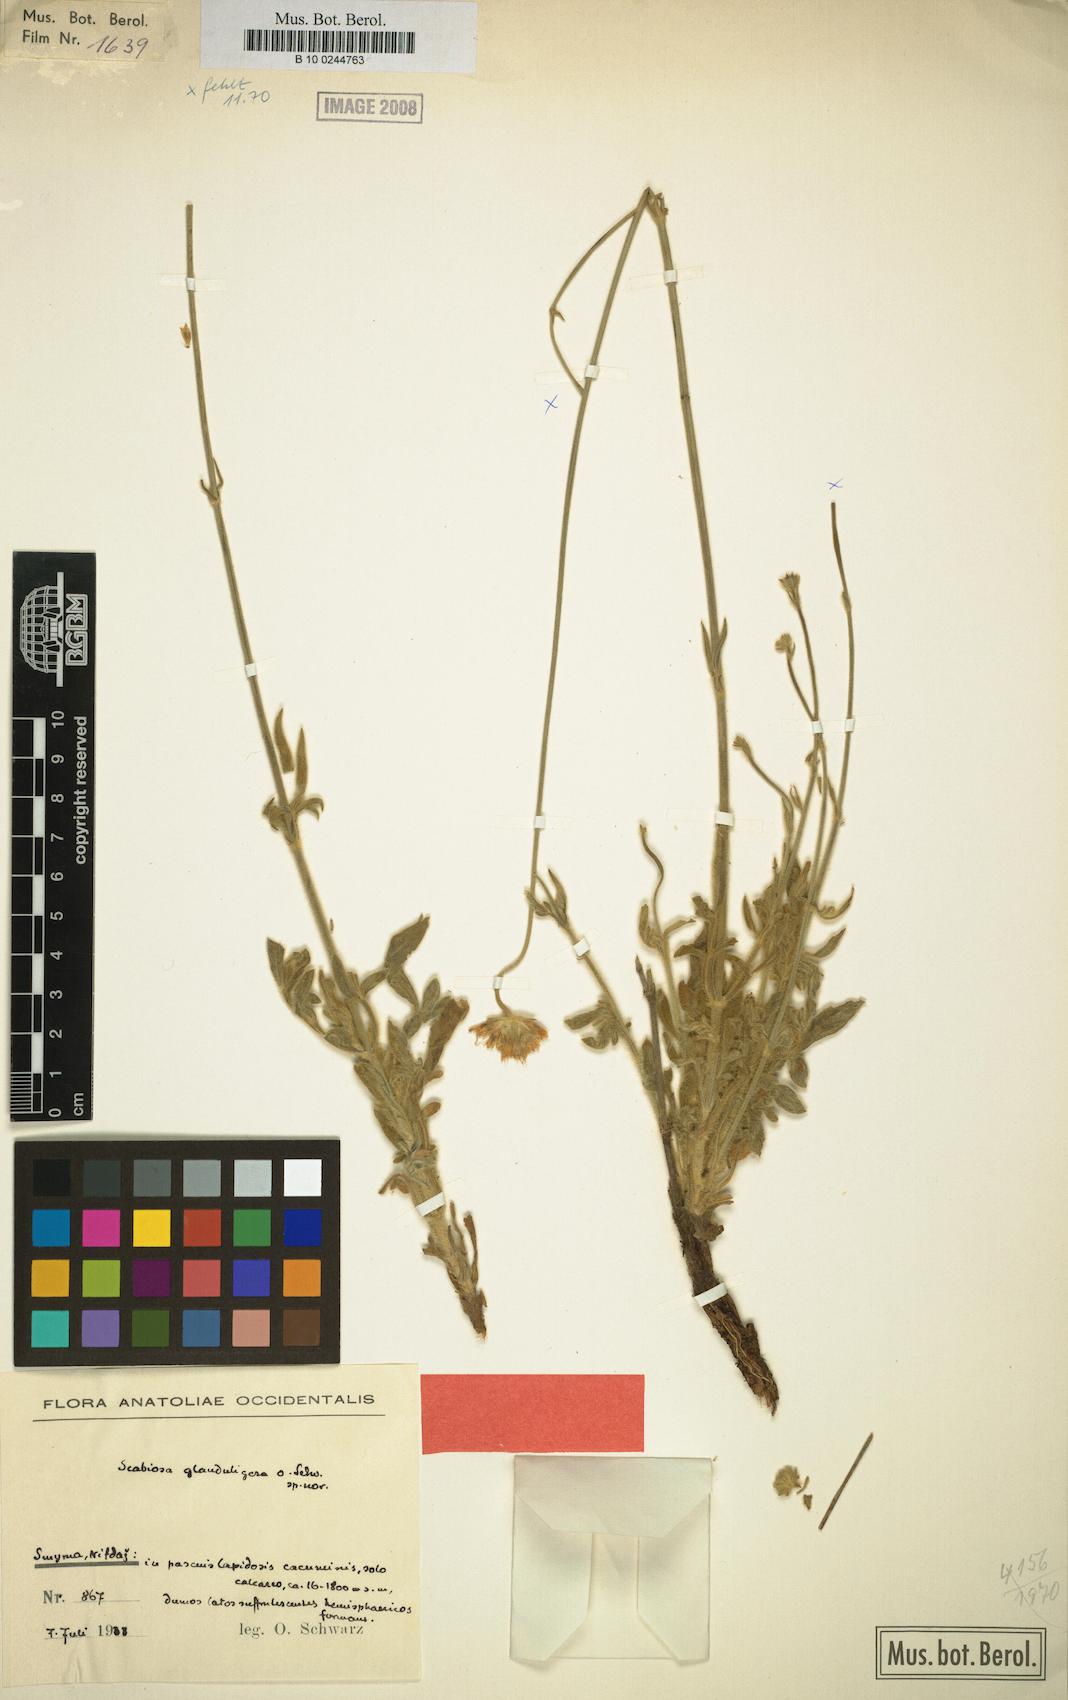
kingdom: Plantae
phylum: Tracheophyta
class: Magnoliopsida
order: Dipsacales
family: Caprifoliaceae
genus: Scabiosa
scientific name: Scabiosa glanduligera
